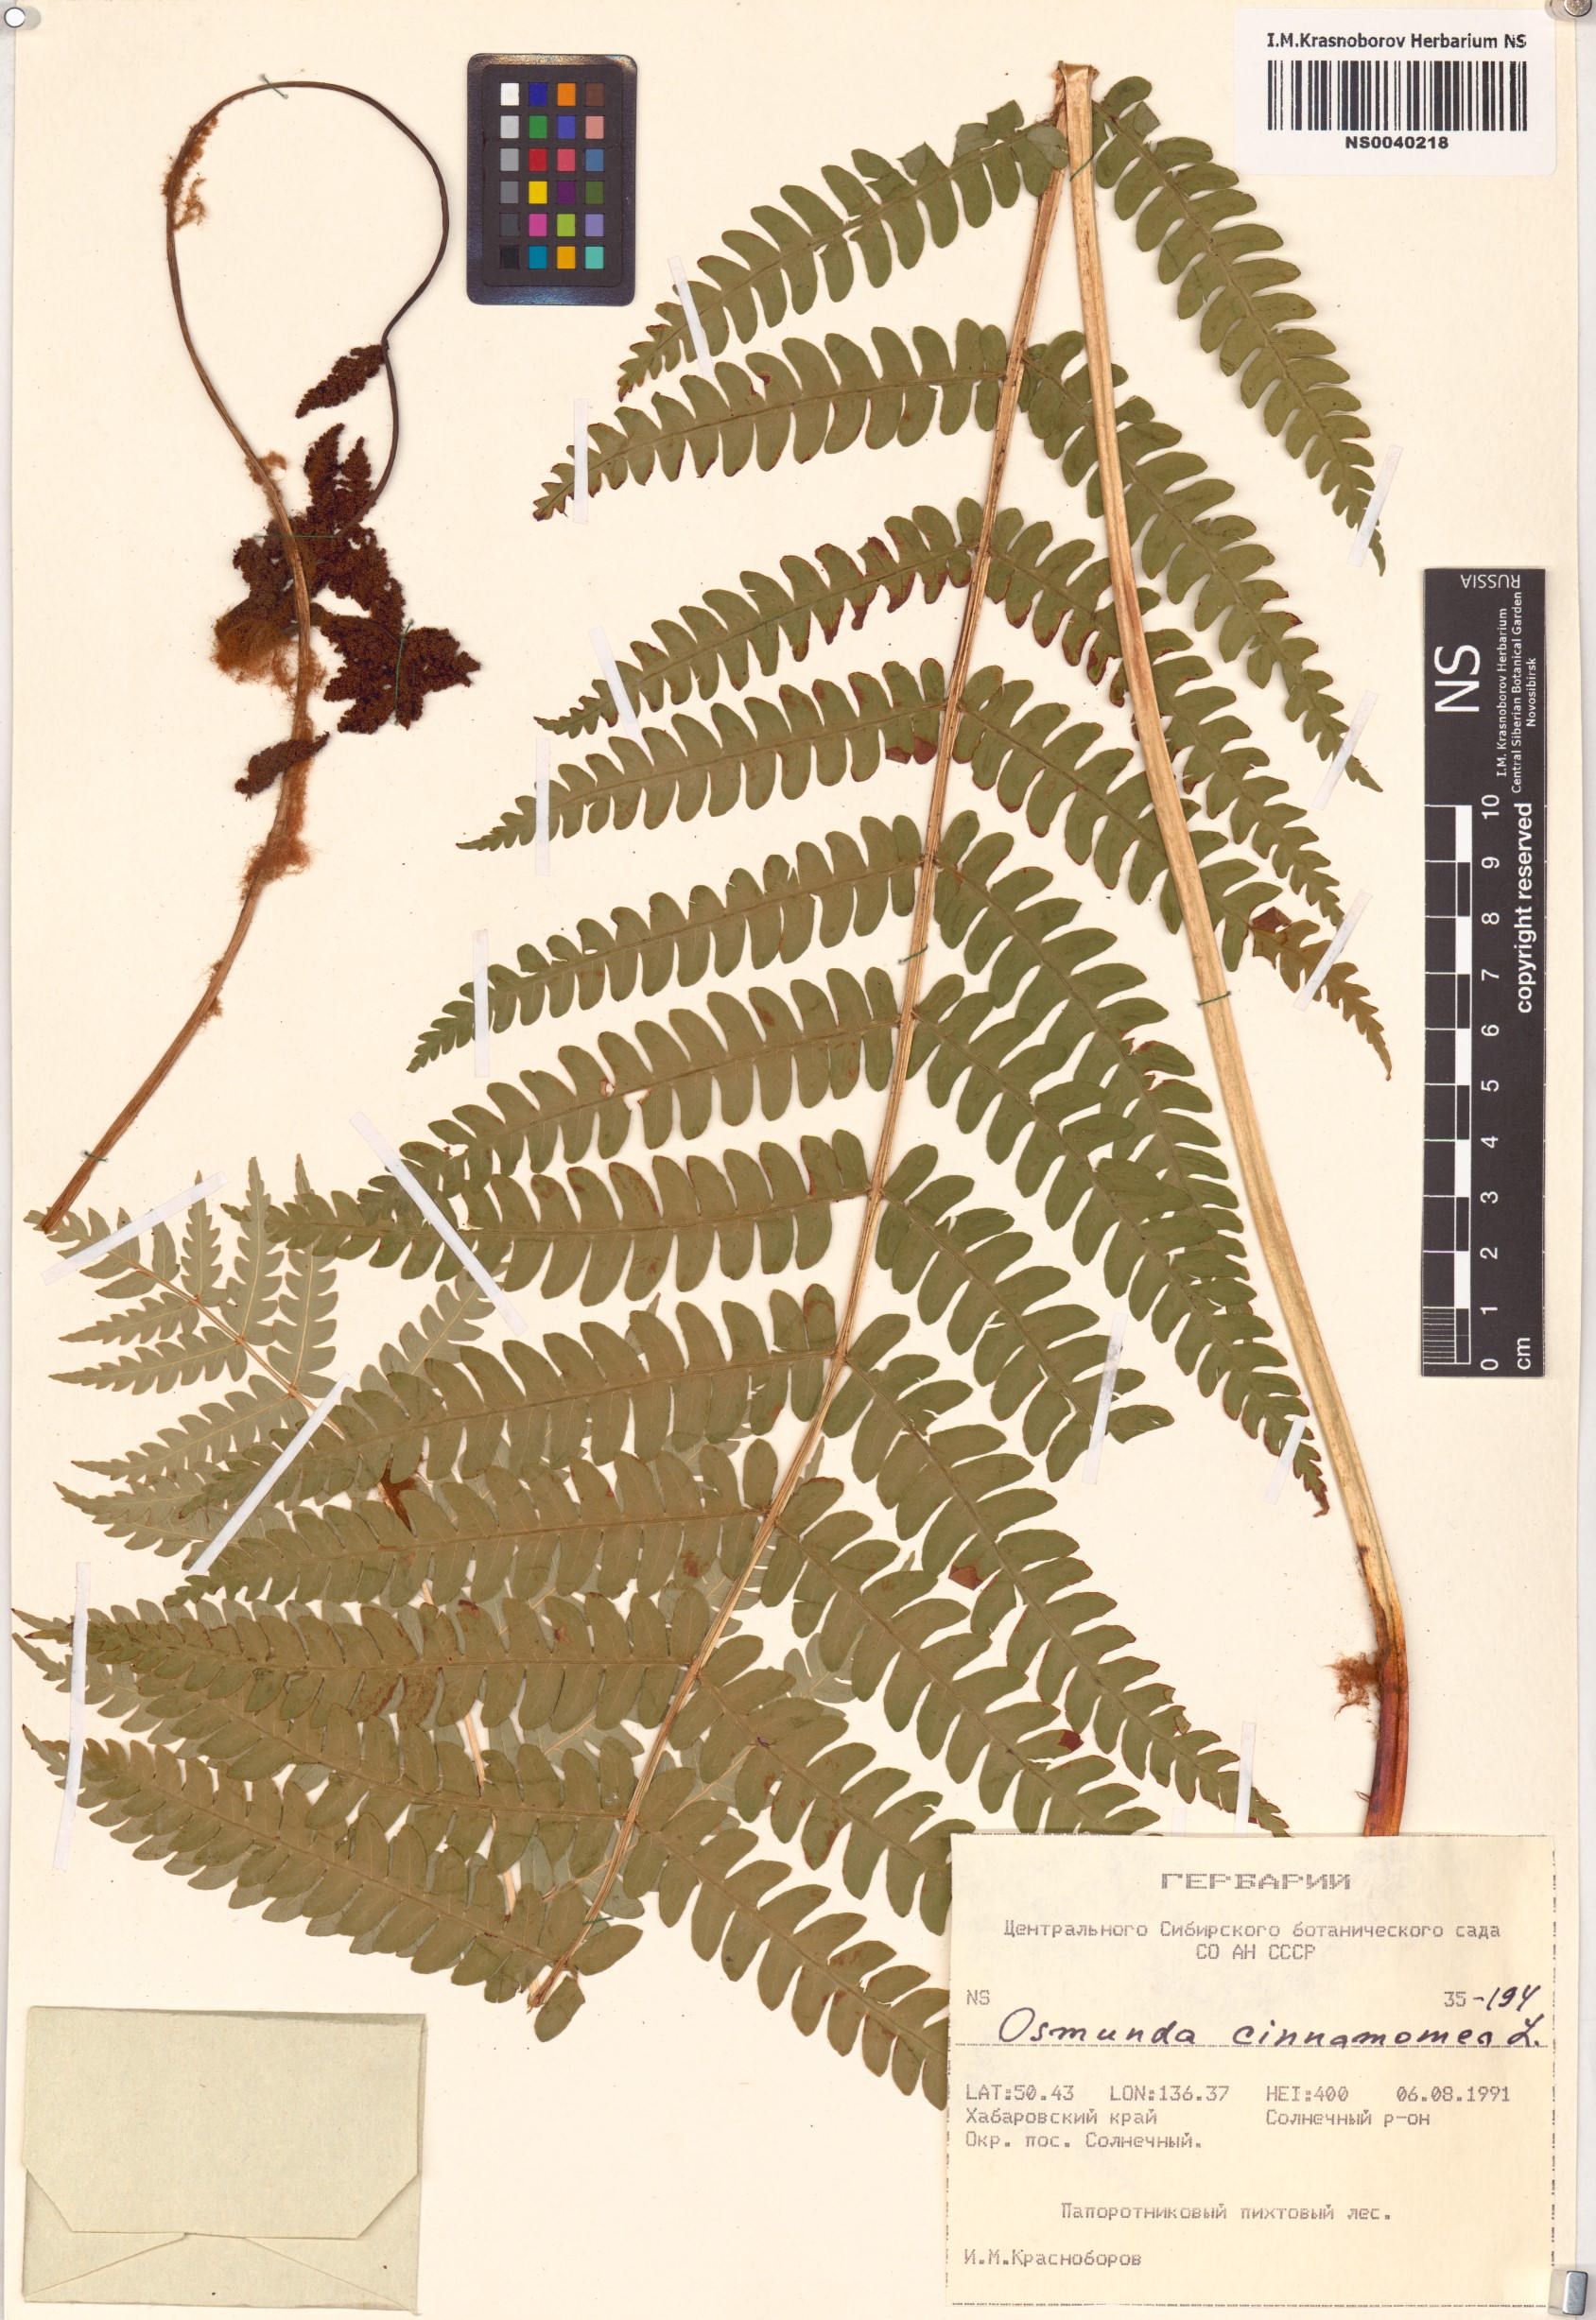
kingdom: Plantae
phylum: Tracheophyta
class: Polypodiopsida
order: Osmundales
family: Osmundaceae
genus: Osmundastrum
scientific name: Osmundastrum cinnamomeum
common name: Cinnamon fern
